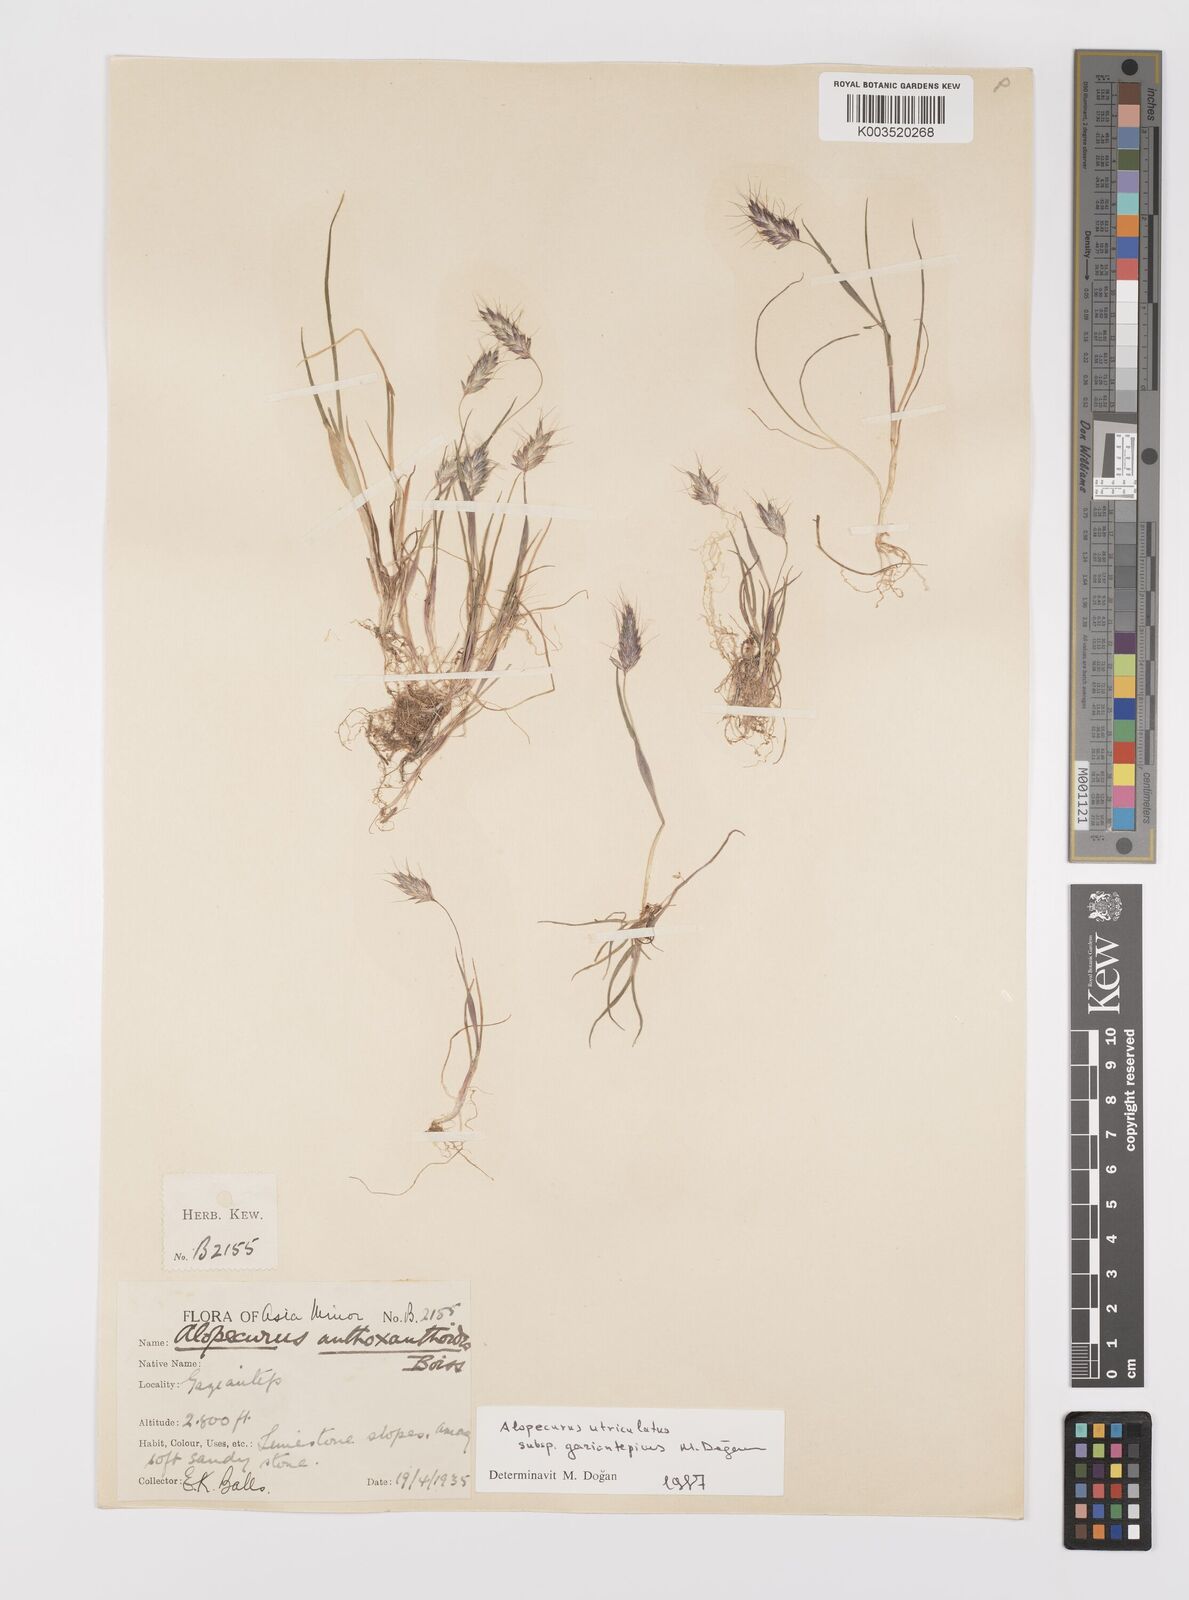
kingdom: Plantae
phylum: Tracheophyta
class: Liliopsida
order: Poales
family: Poaceae
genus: Alopecurus
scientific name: Alopecurus utriculatus
